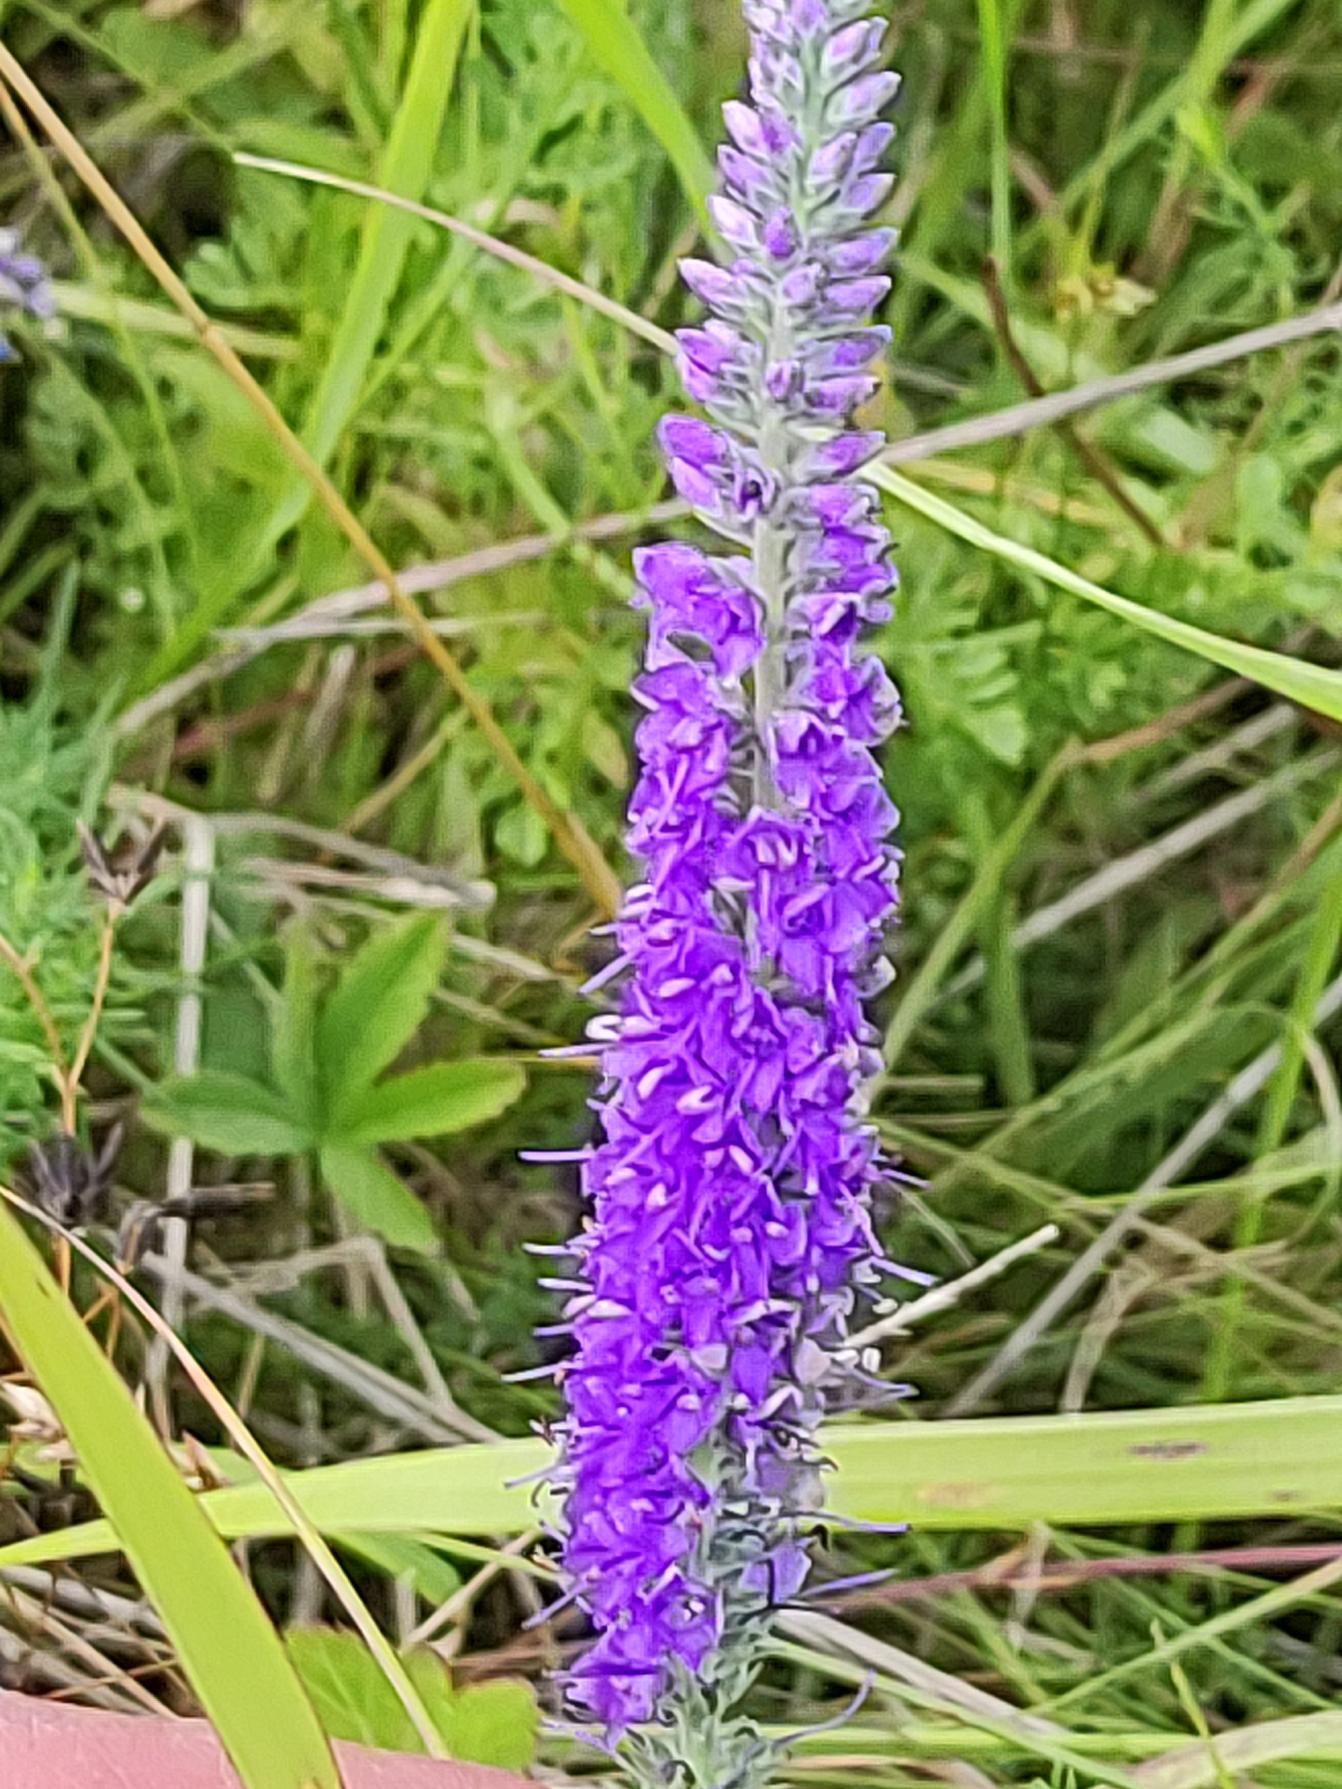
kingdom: Plantae
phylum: Tracheophyta
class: Magnoliopsida
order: Lamiales
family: Plantaginaceae
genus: Veronica
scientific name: Veronica spicata
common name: Aks-ærenpris
